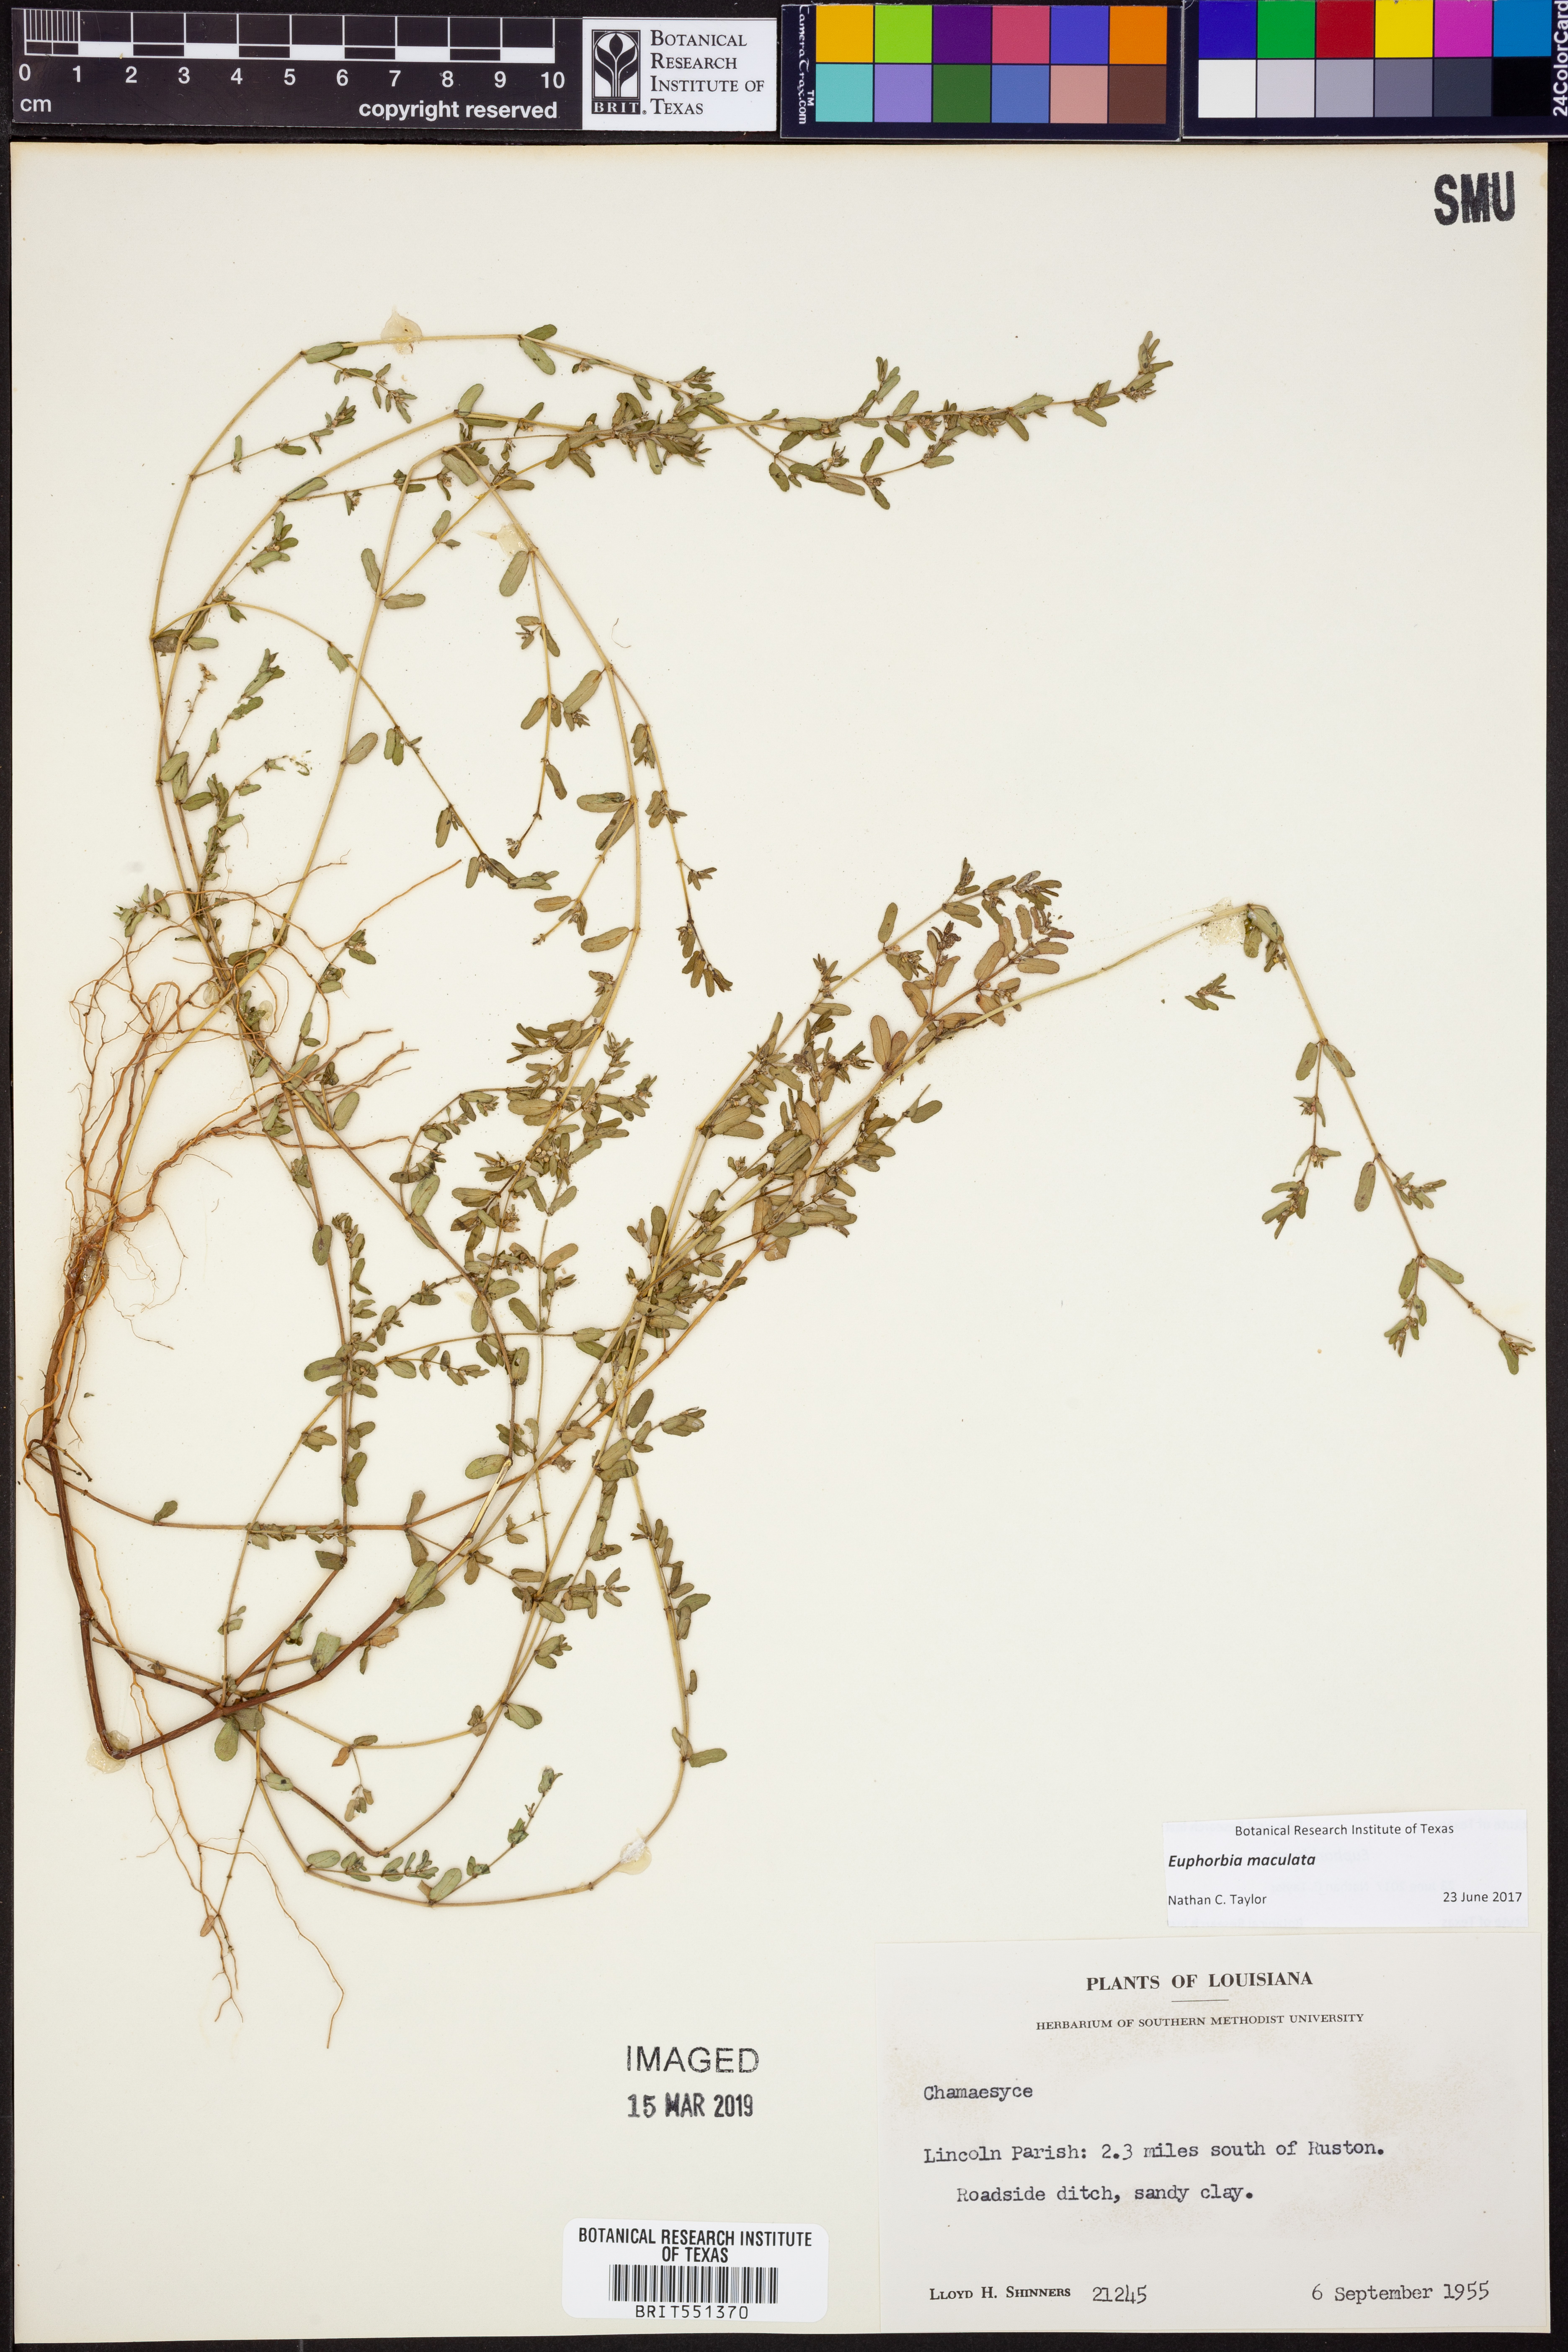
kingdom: Plantae
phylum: Tracheophyta
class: Magnoliopsida
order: Malpighiales
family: Euphorbiaceae
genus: Euphorbia
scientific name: Euphorbia maculata
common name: Spotted spurge
